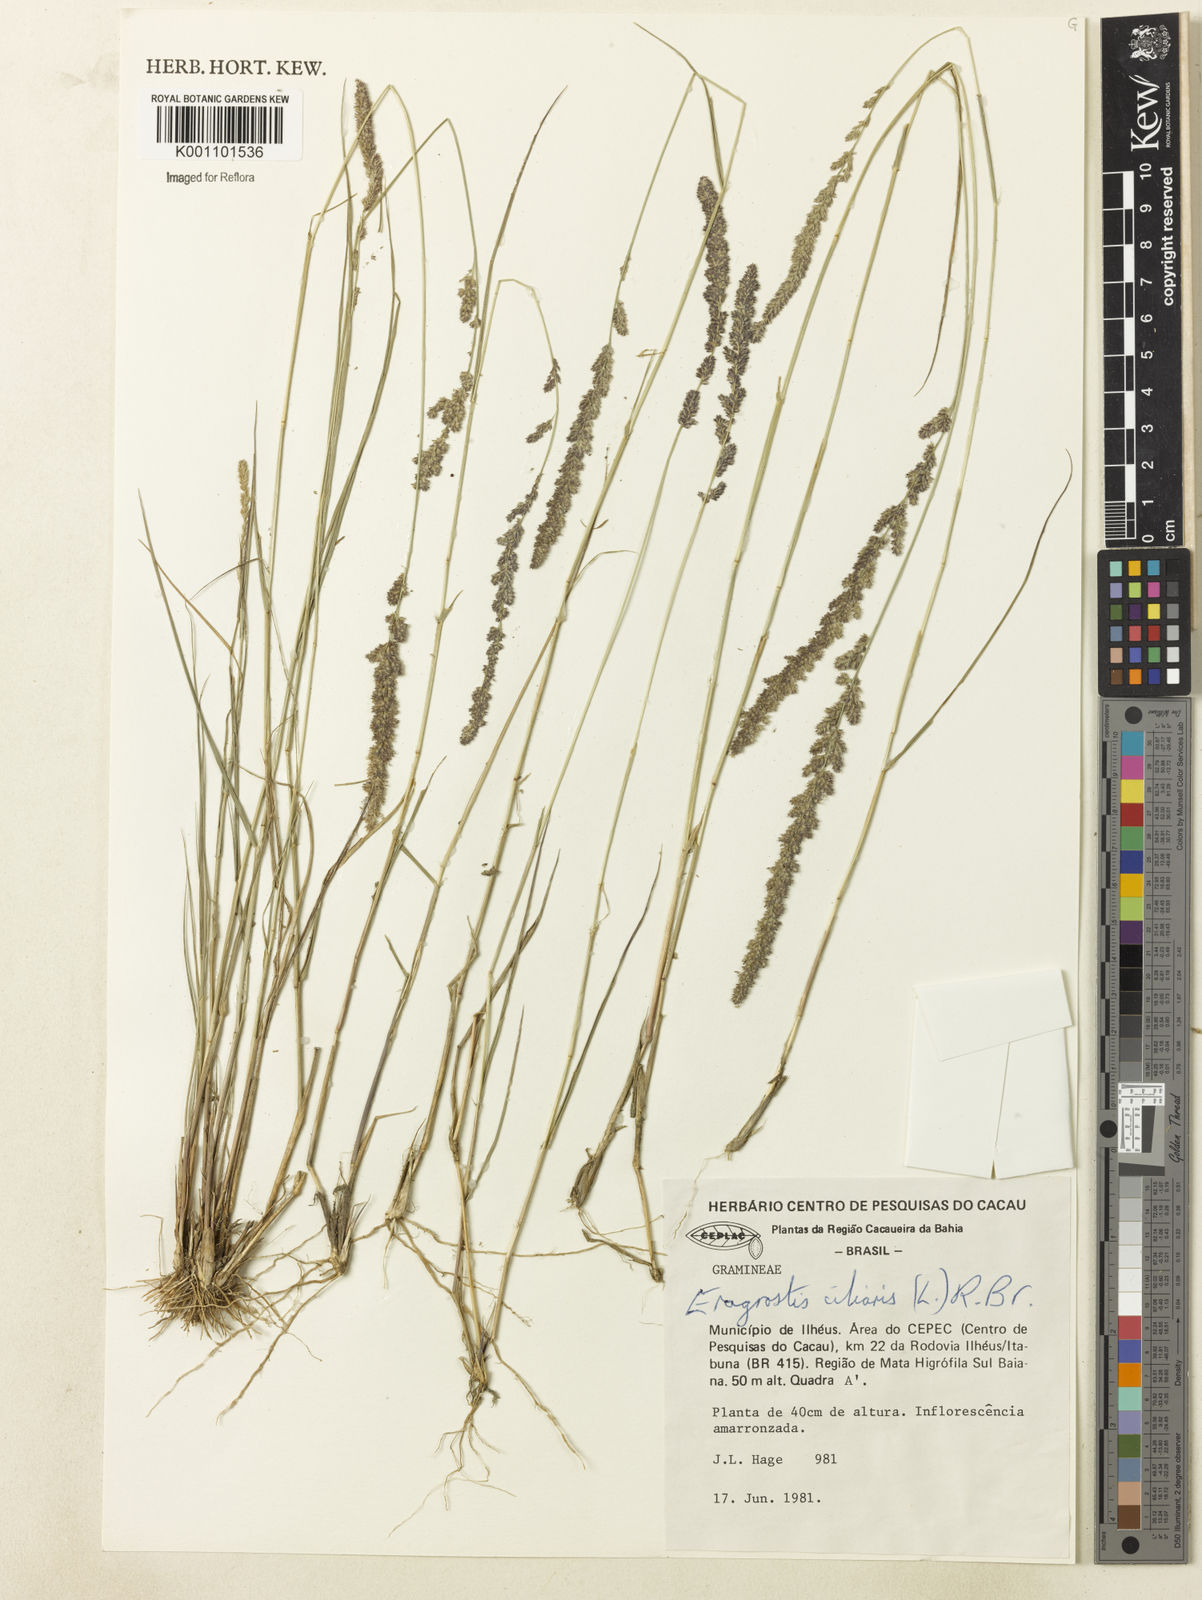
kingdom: Plantae
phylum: Tracheophyta
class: Liliopsida
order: Poales
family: Poaceae
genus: Eragrostis
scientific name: Eragrostis ciliaris
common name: Gophertail lovegrass
